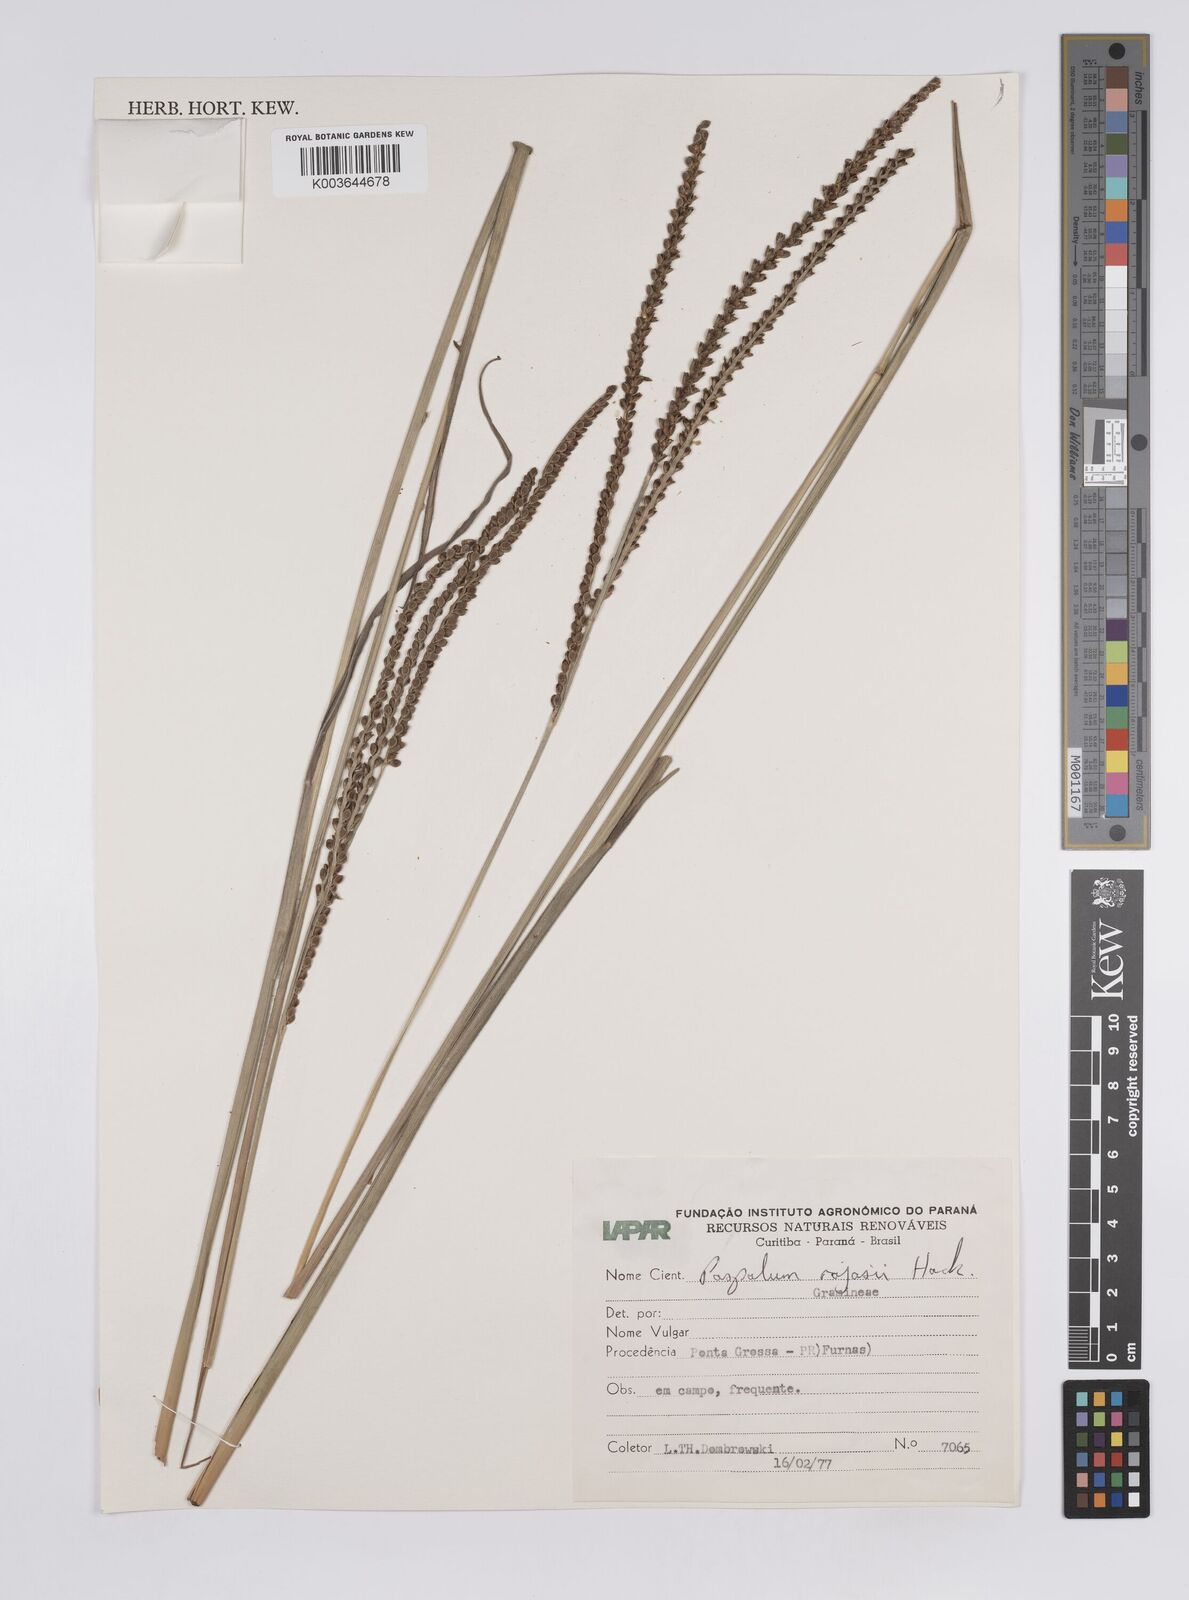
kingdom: Plantae
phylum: Tracheophyta
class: Liliopsida
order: Poales
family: Poaceae
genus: Paspalum
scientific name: Paspalum guenoarum
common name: Wintergreen paspalum
